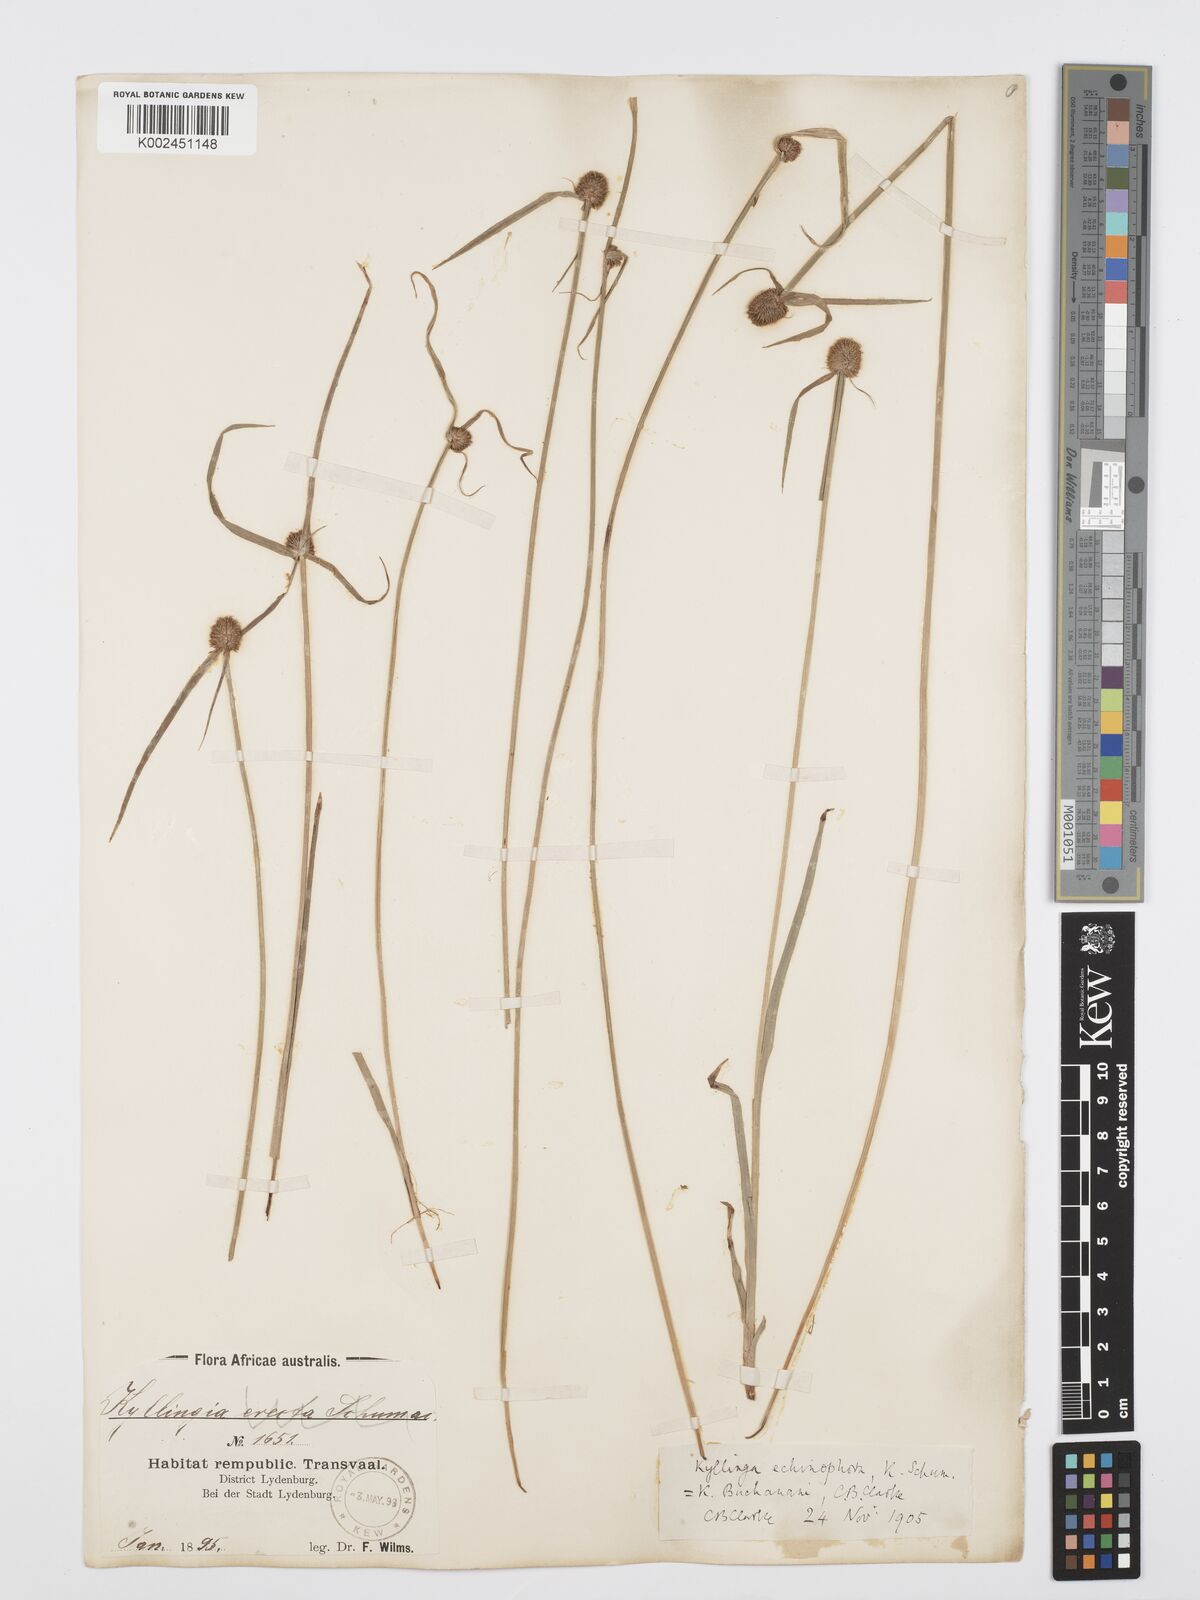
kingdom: Plantae
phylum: Tracheophyta
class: Liliopsida
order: Poales
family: Cyperaceae
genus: Cyperus
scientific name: Cyperus
